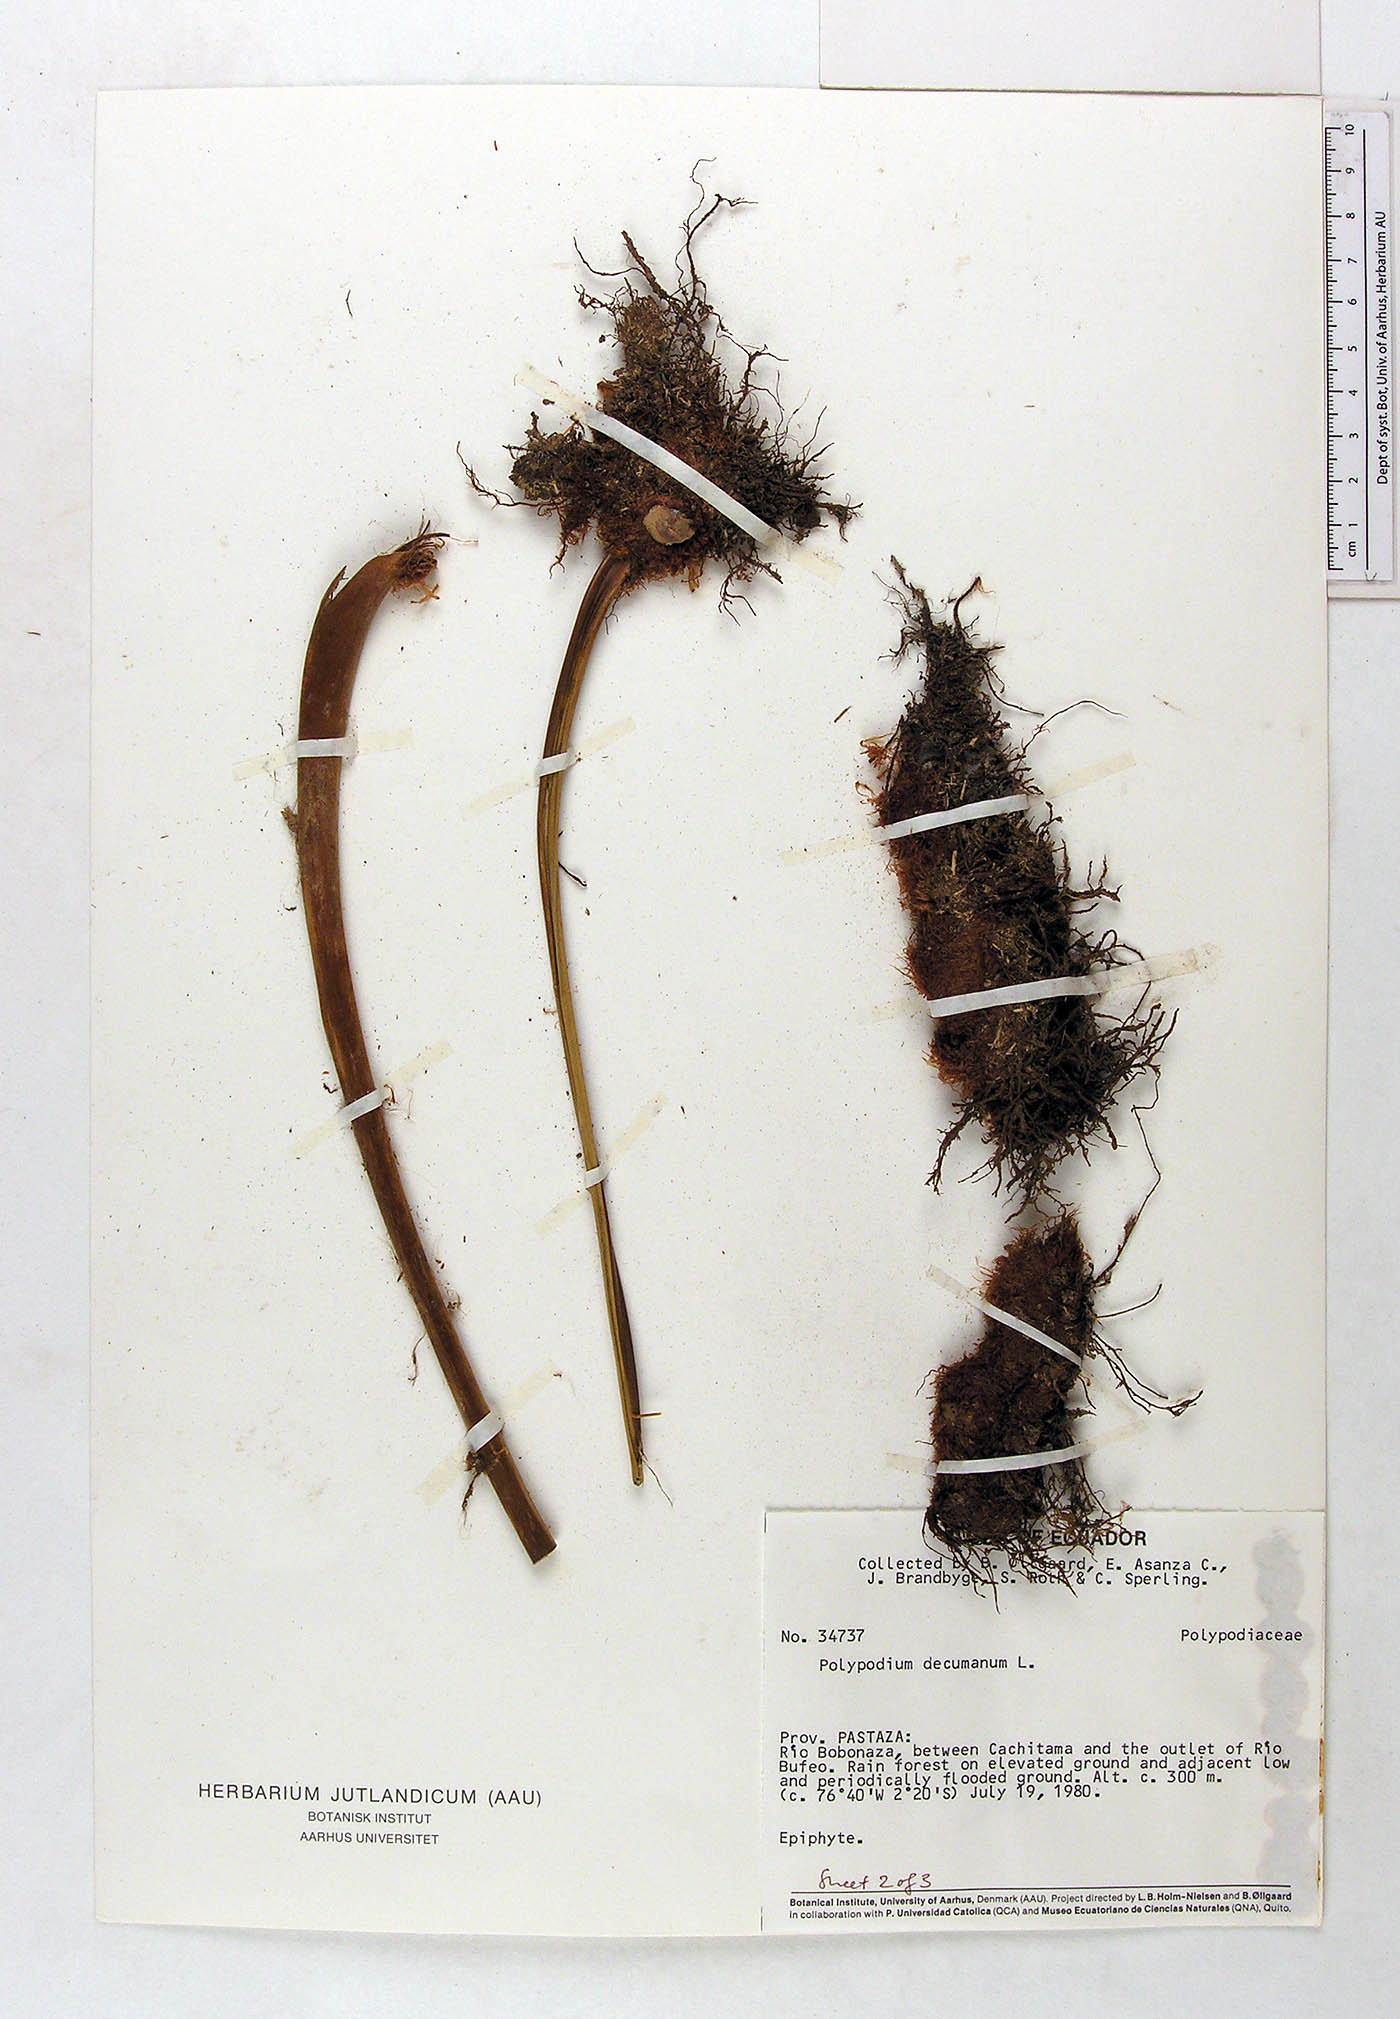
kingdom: Plantae
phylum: Tracheophyta
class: Polypodiopsida
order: Polypodiales
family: Polypodiaceae
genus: Phlebodium
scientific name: Phlebodium decumanum
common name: Golden polypod
